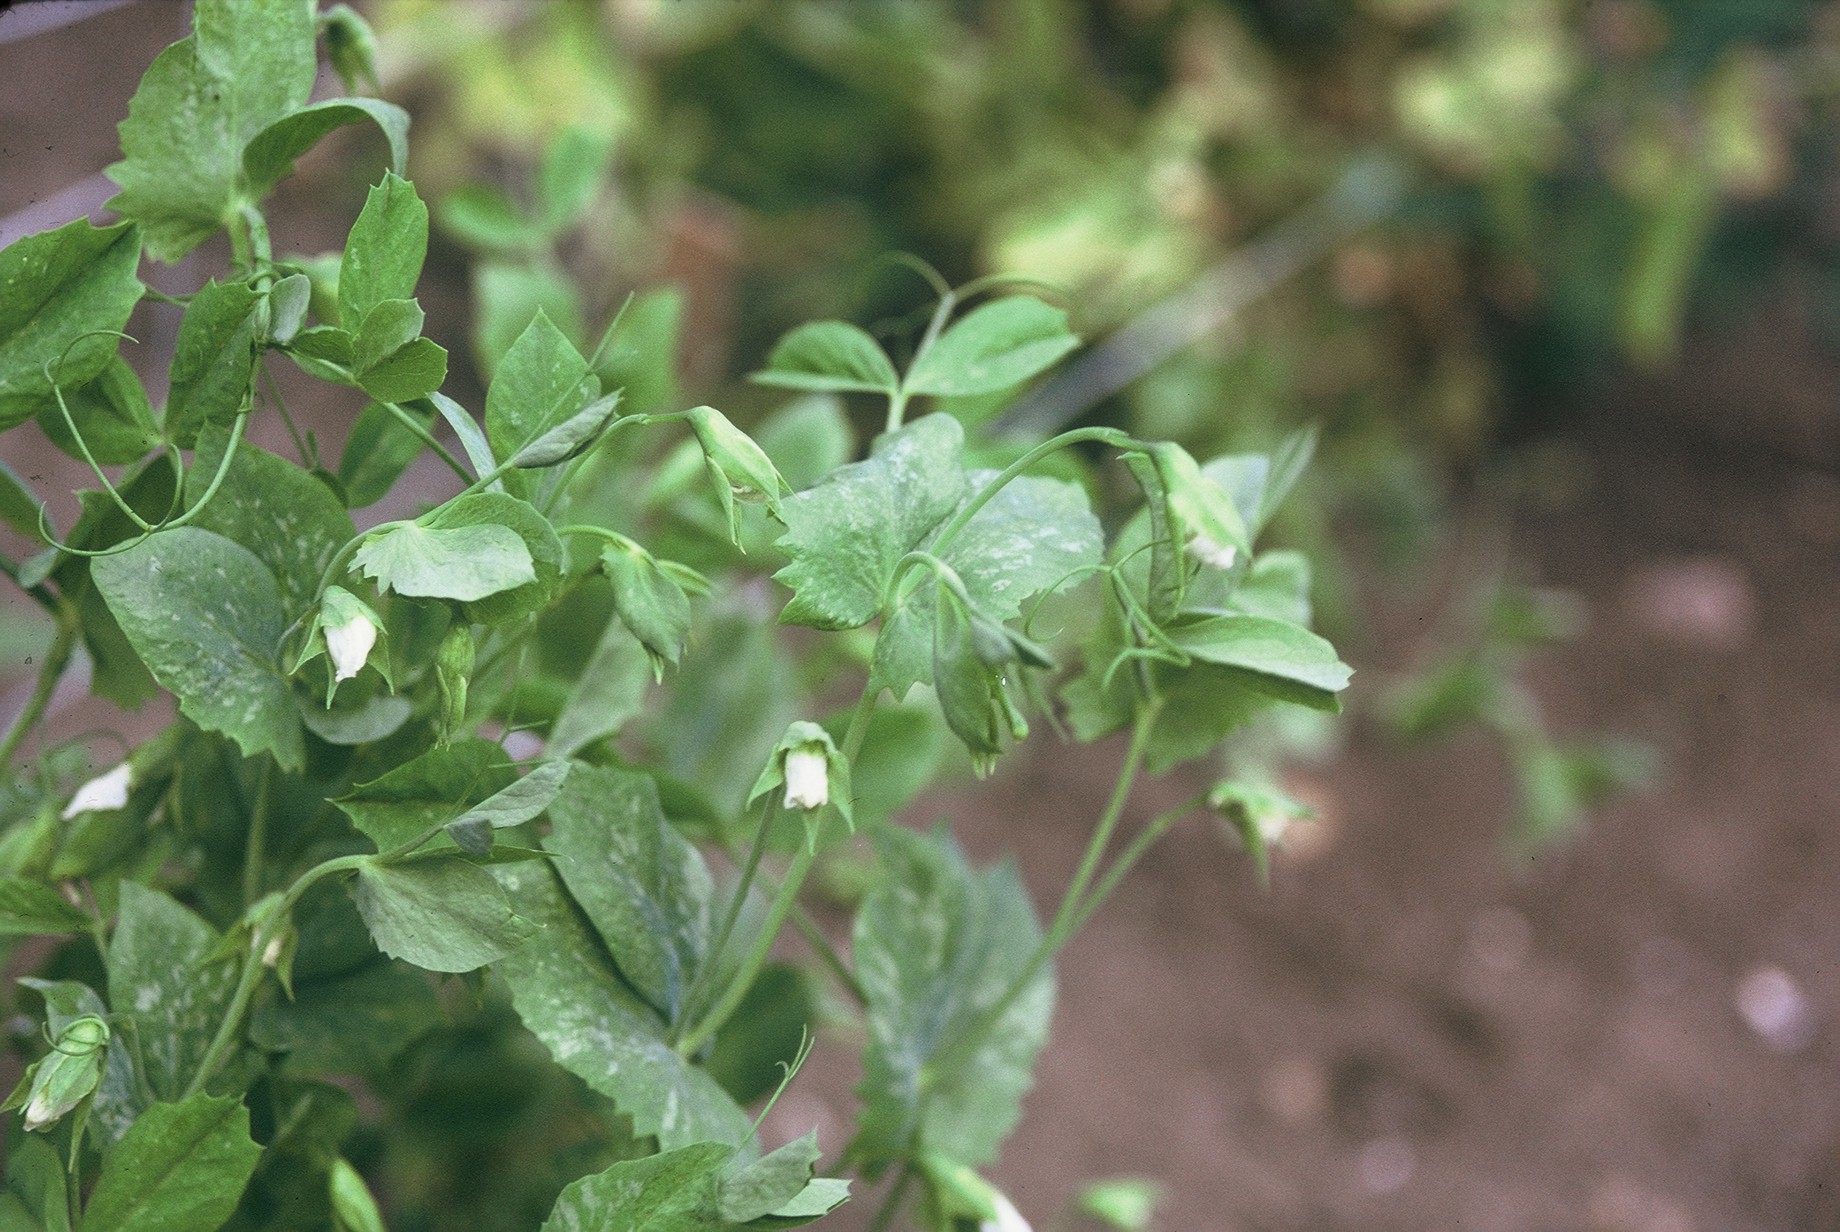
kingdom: Plantae
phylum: Tracheophyta
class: Magnoliopsida
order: Fabales
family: Fabaceae
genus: Lathyrus
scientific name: Lathyrus oleraceus
